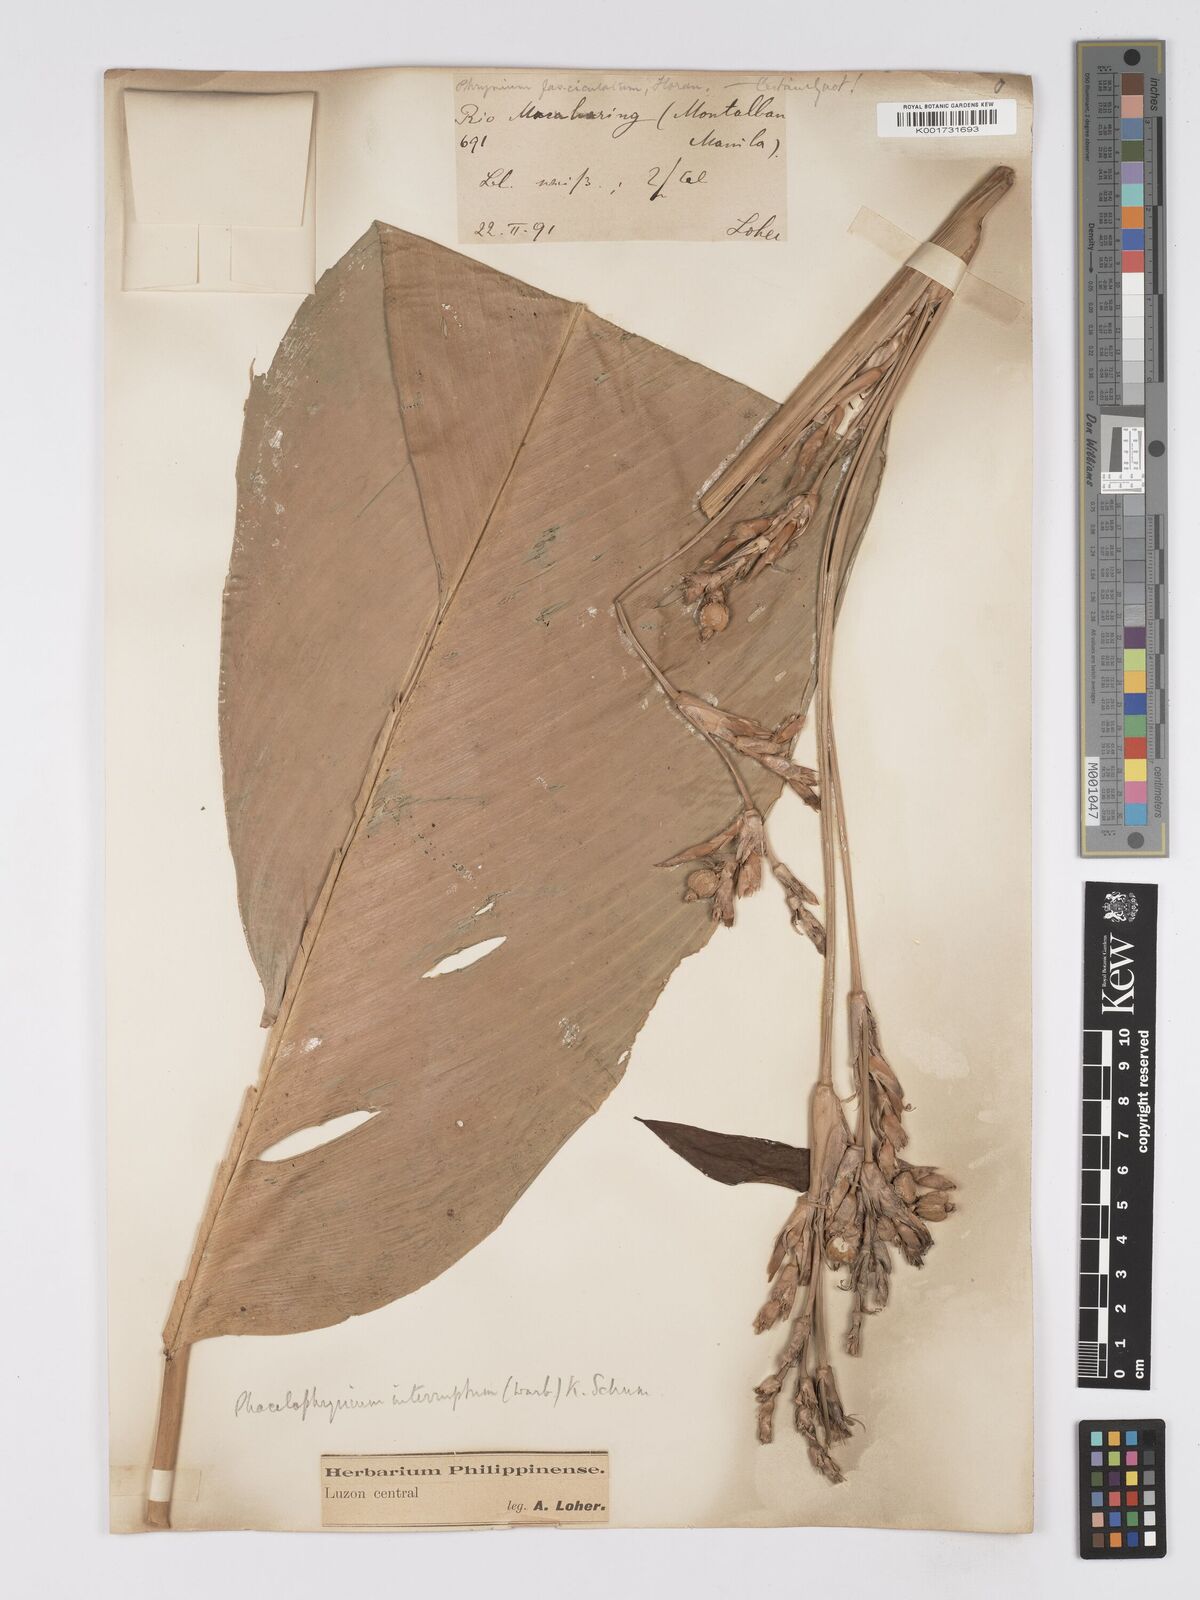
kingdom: Plantae
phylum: Tracheophyta
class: Liliopsida
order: Zingiberales
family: Marantaceae
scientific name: Marantaceae
